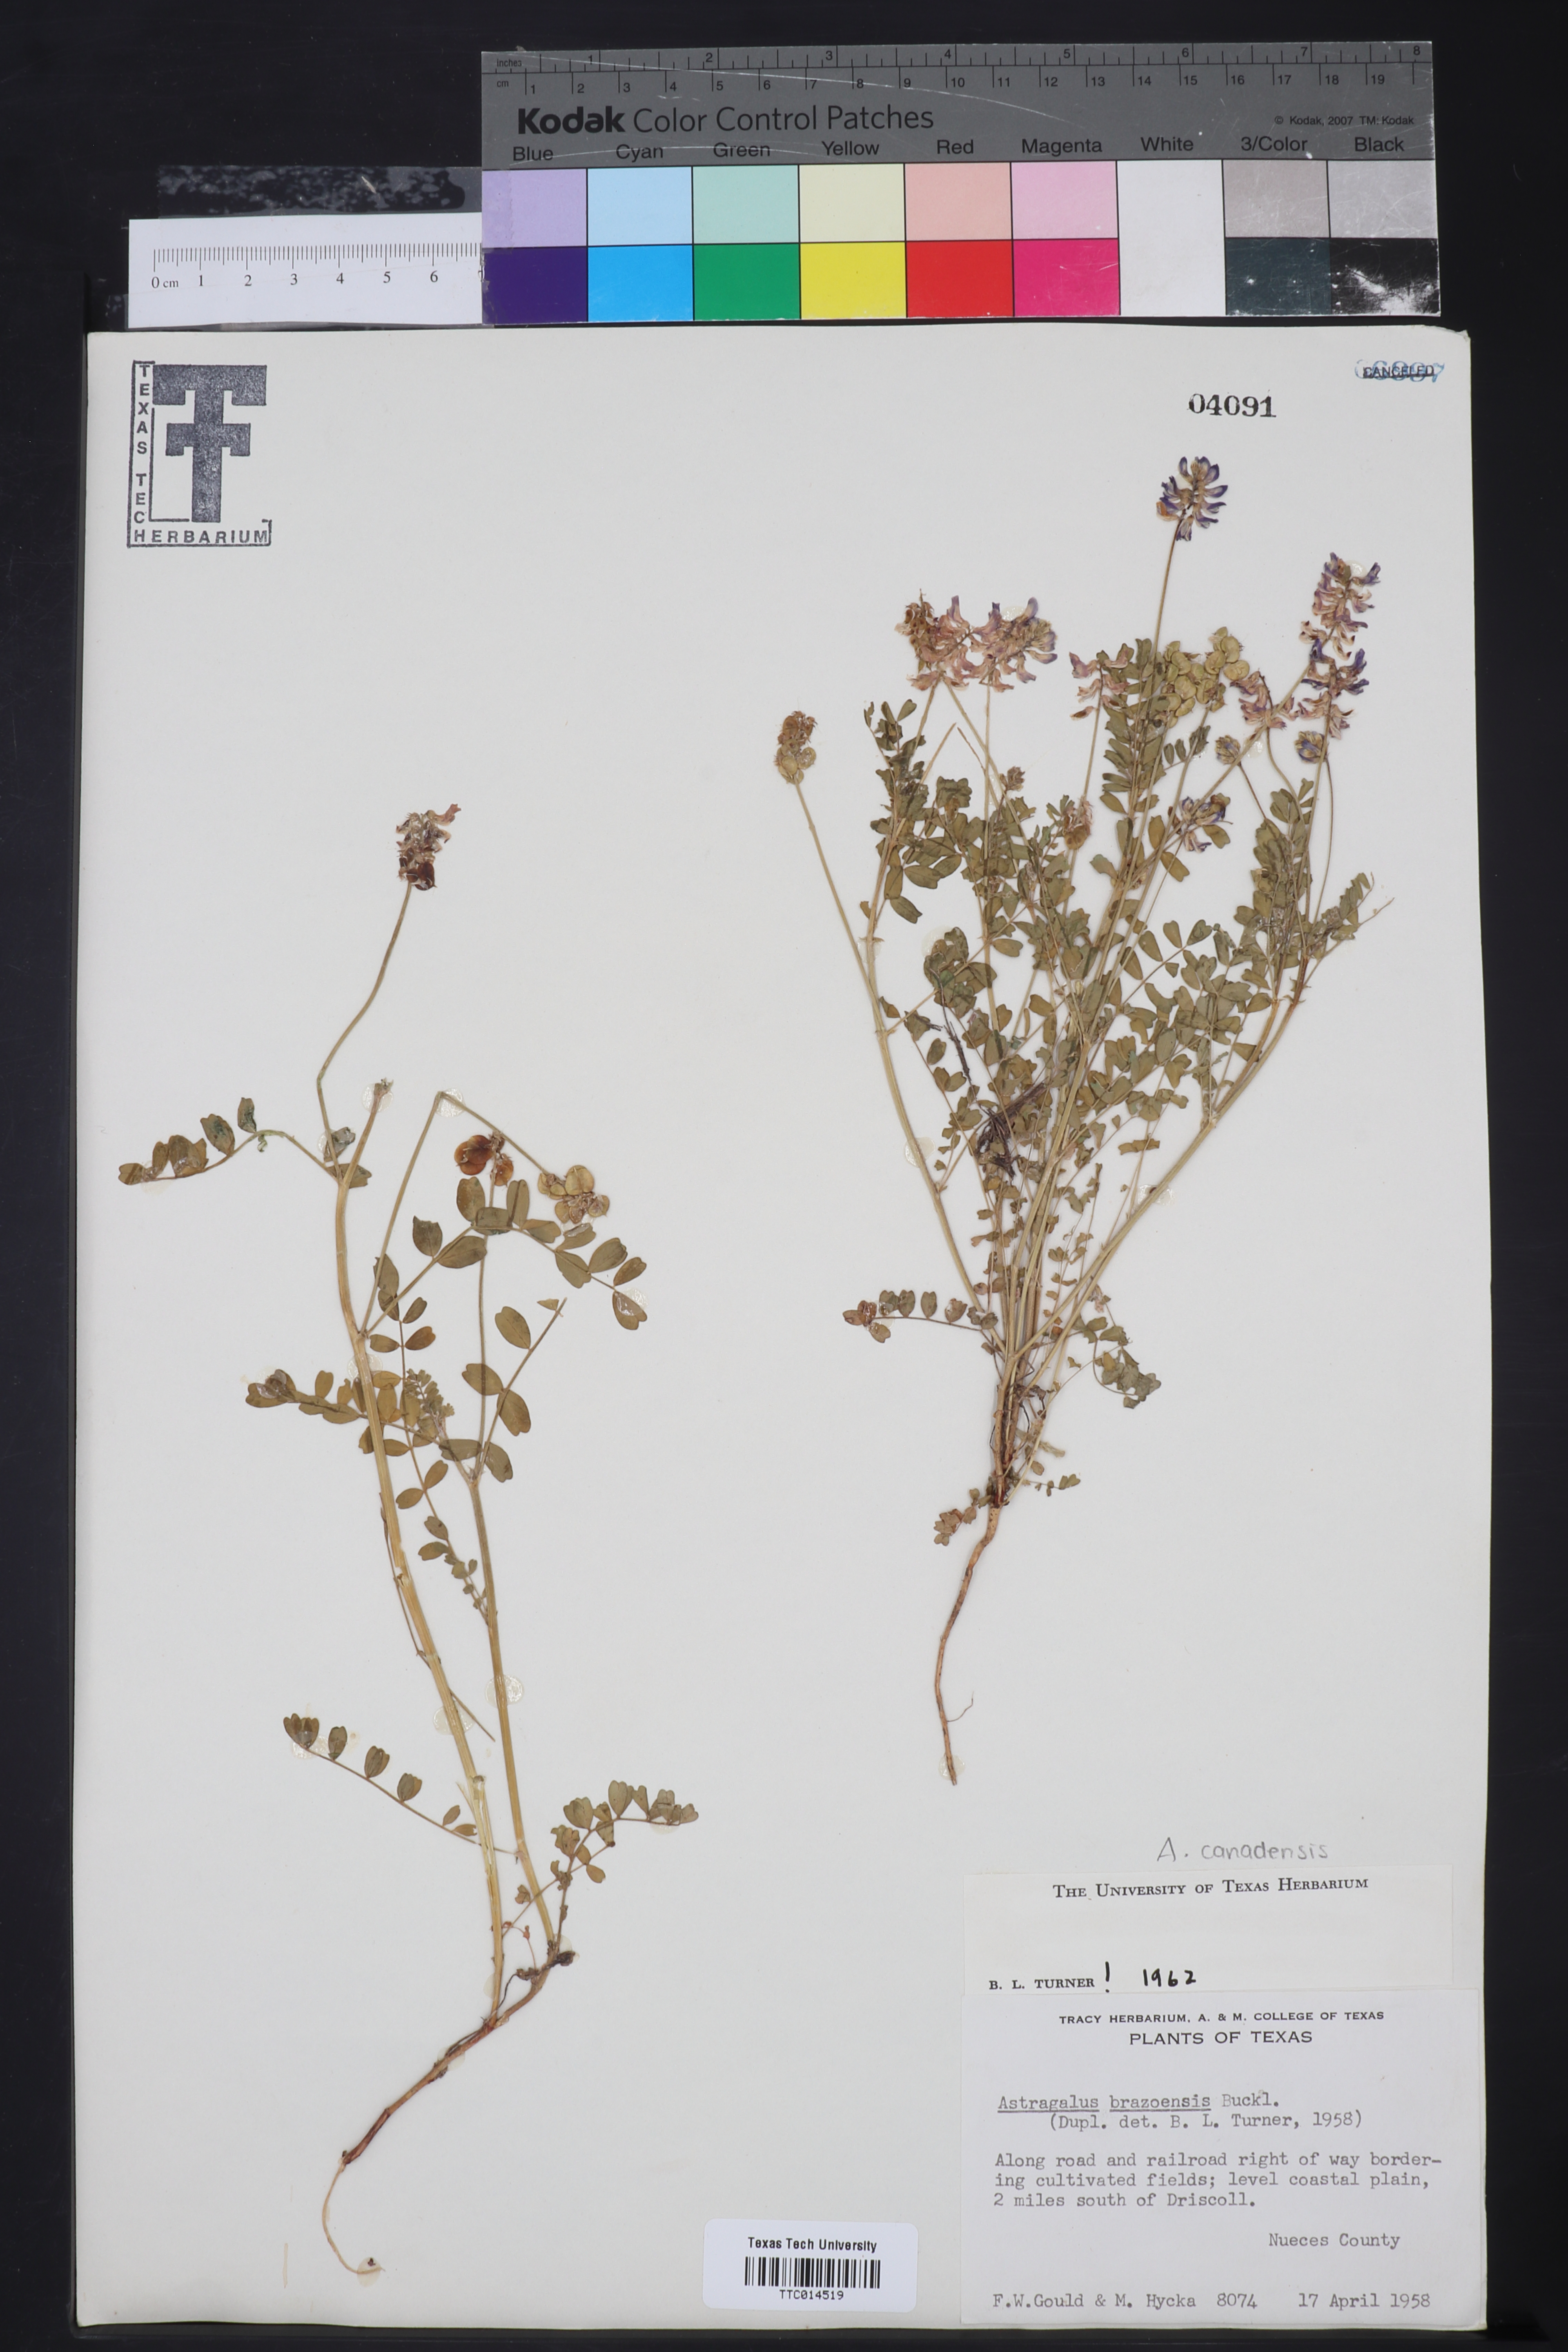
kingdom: Plantae
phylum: Tracheophyta
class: Magnoliopsida
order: Fabales
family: Fabaceae
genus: Astragalus
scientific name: Astragalus brazoensis
